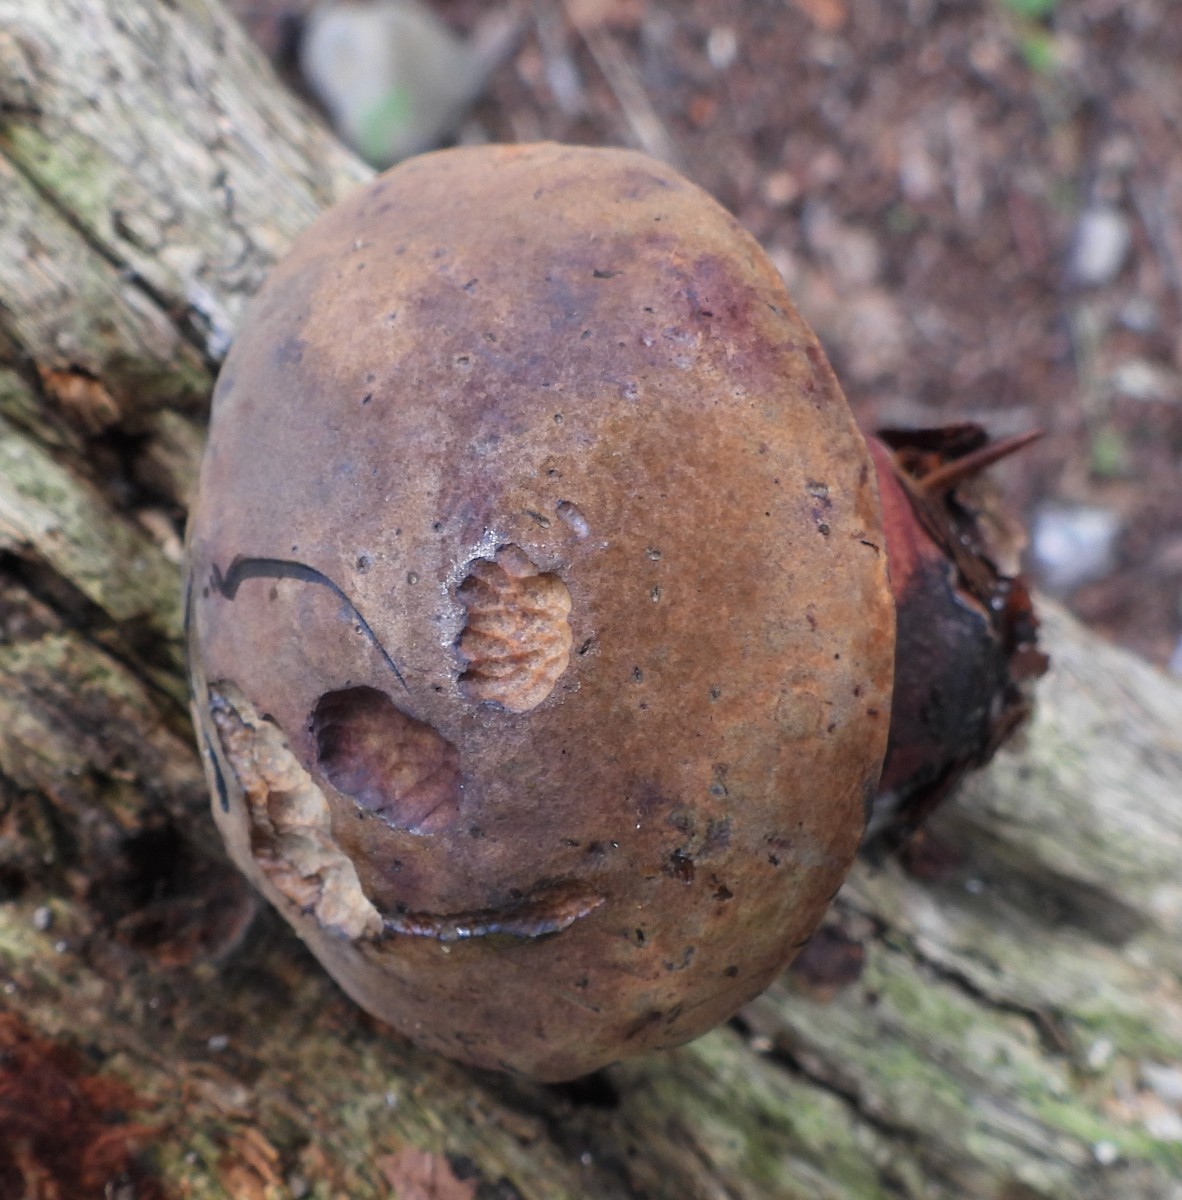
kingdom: Fungi
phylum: Basidiomycota
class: Agaricomycetes
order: Boletales
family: Boletaceae
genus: Neoboletus
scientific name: Neoboletus erythropus
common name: punktstokket indigorørhat
